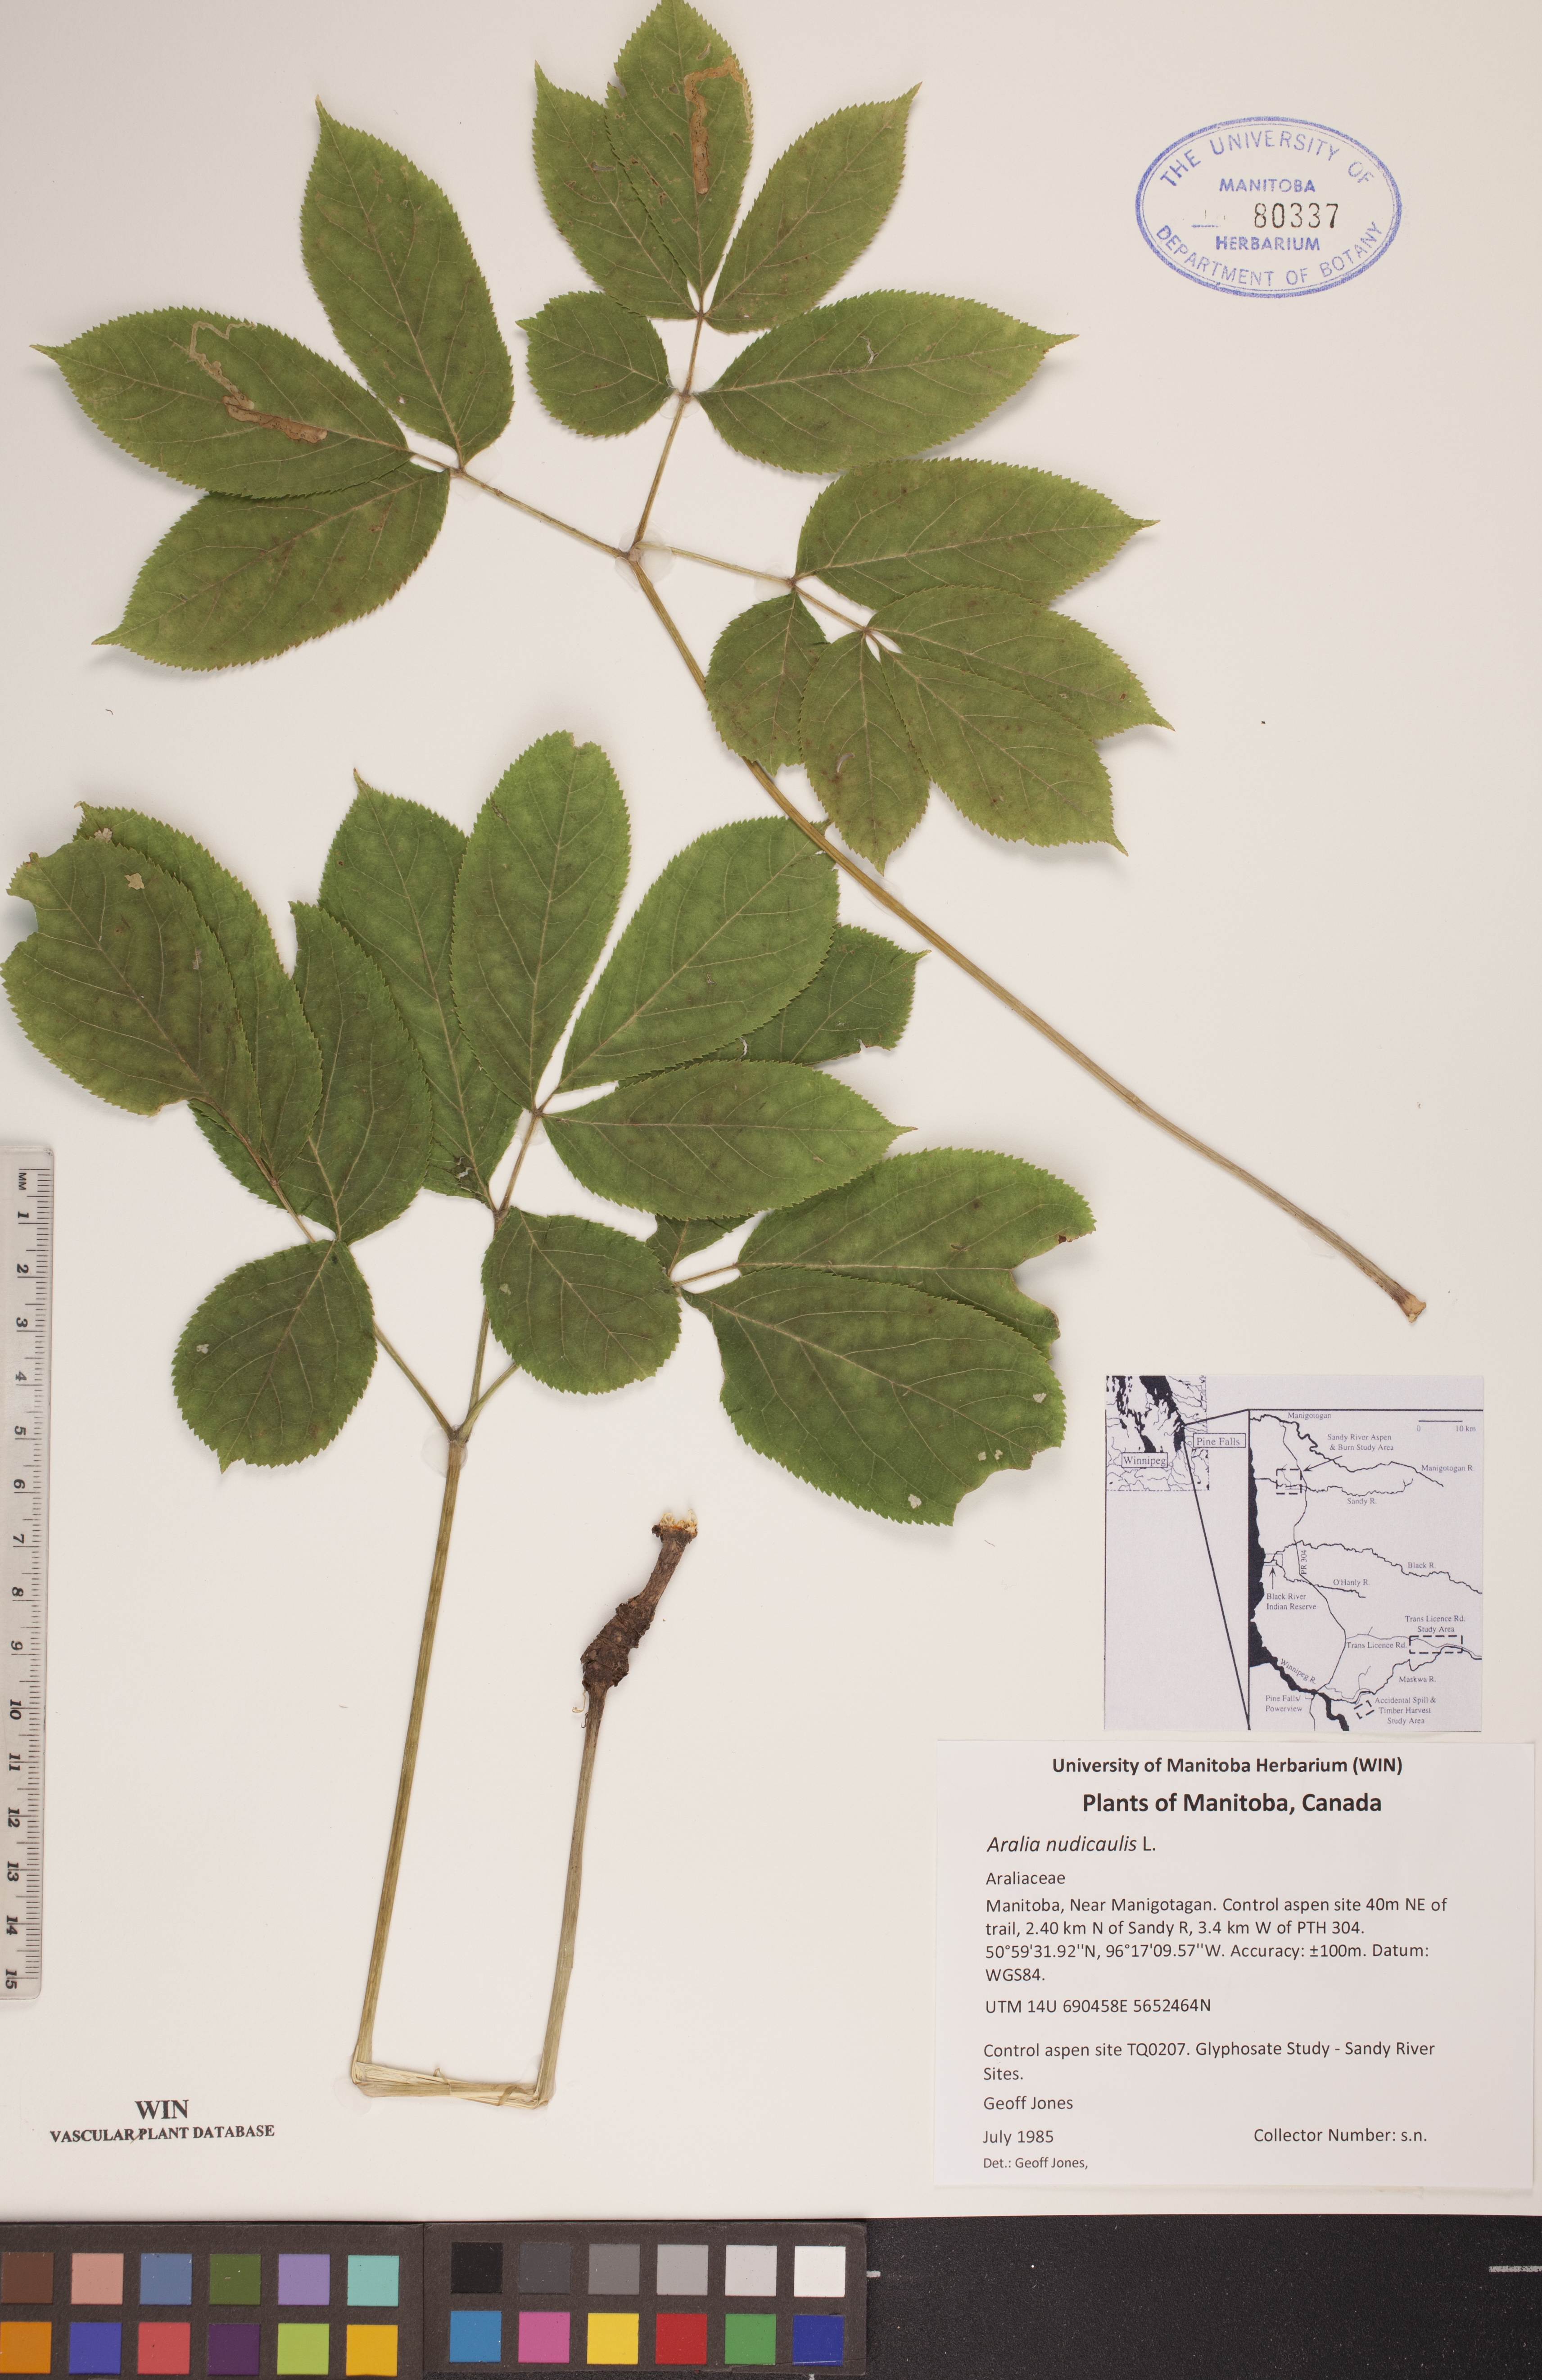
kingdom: Plantae
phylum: Tracheophyta
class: Magnoliopsida
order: Apiales
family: Araliaceae
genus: Aralia
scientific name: Aralia nudicaulis
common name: Wild sarsaparilla
